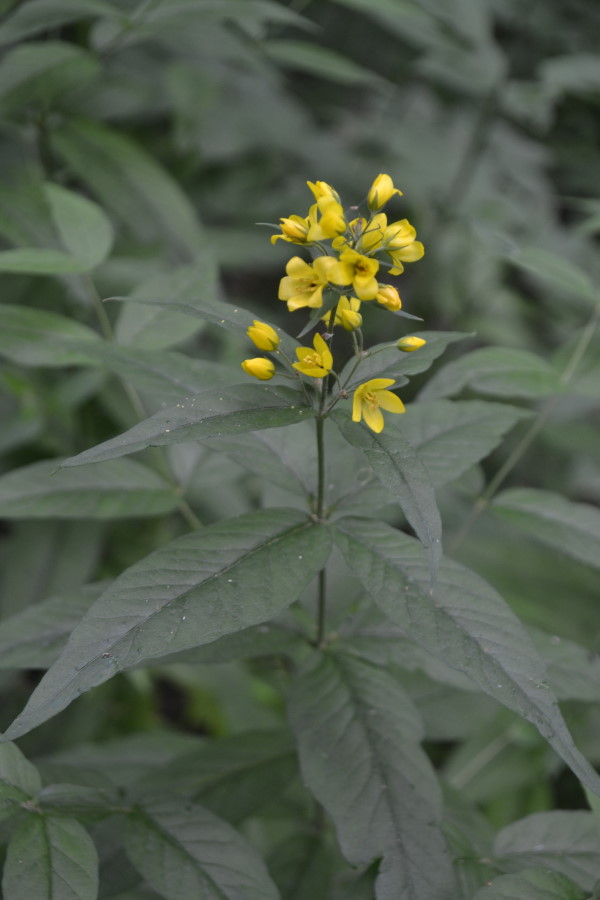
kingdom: Plantae
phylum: Tracheophyta
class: Magnoliopsida
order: Ericales
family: Primulaceae
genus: Lysimachia
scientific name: Lysimachia vulgaris
